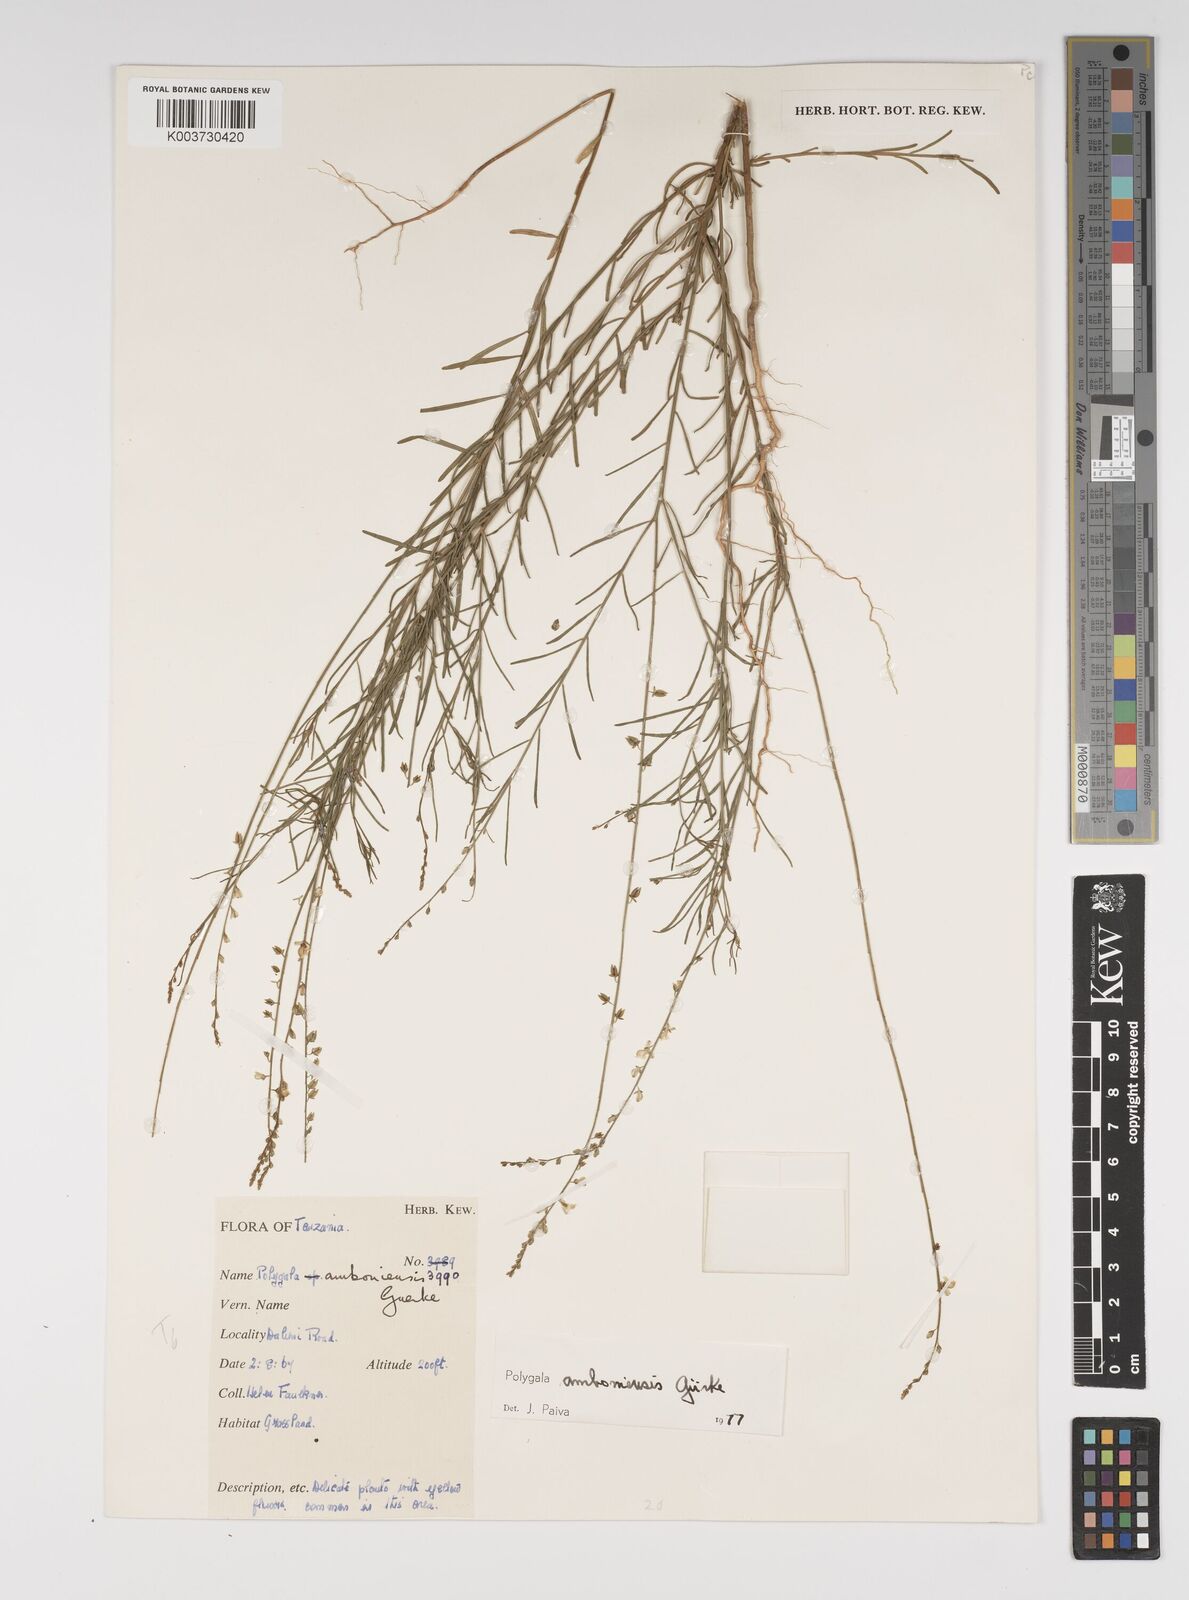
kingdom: Plantae
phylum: Tracheophyta
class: Magnoliopsida
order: Fabales
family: Polygalaceae
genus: Polygala
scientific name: Polygala amboniensis
